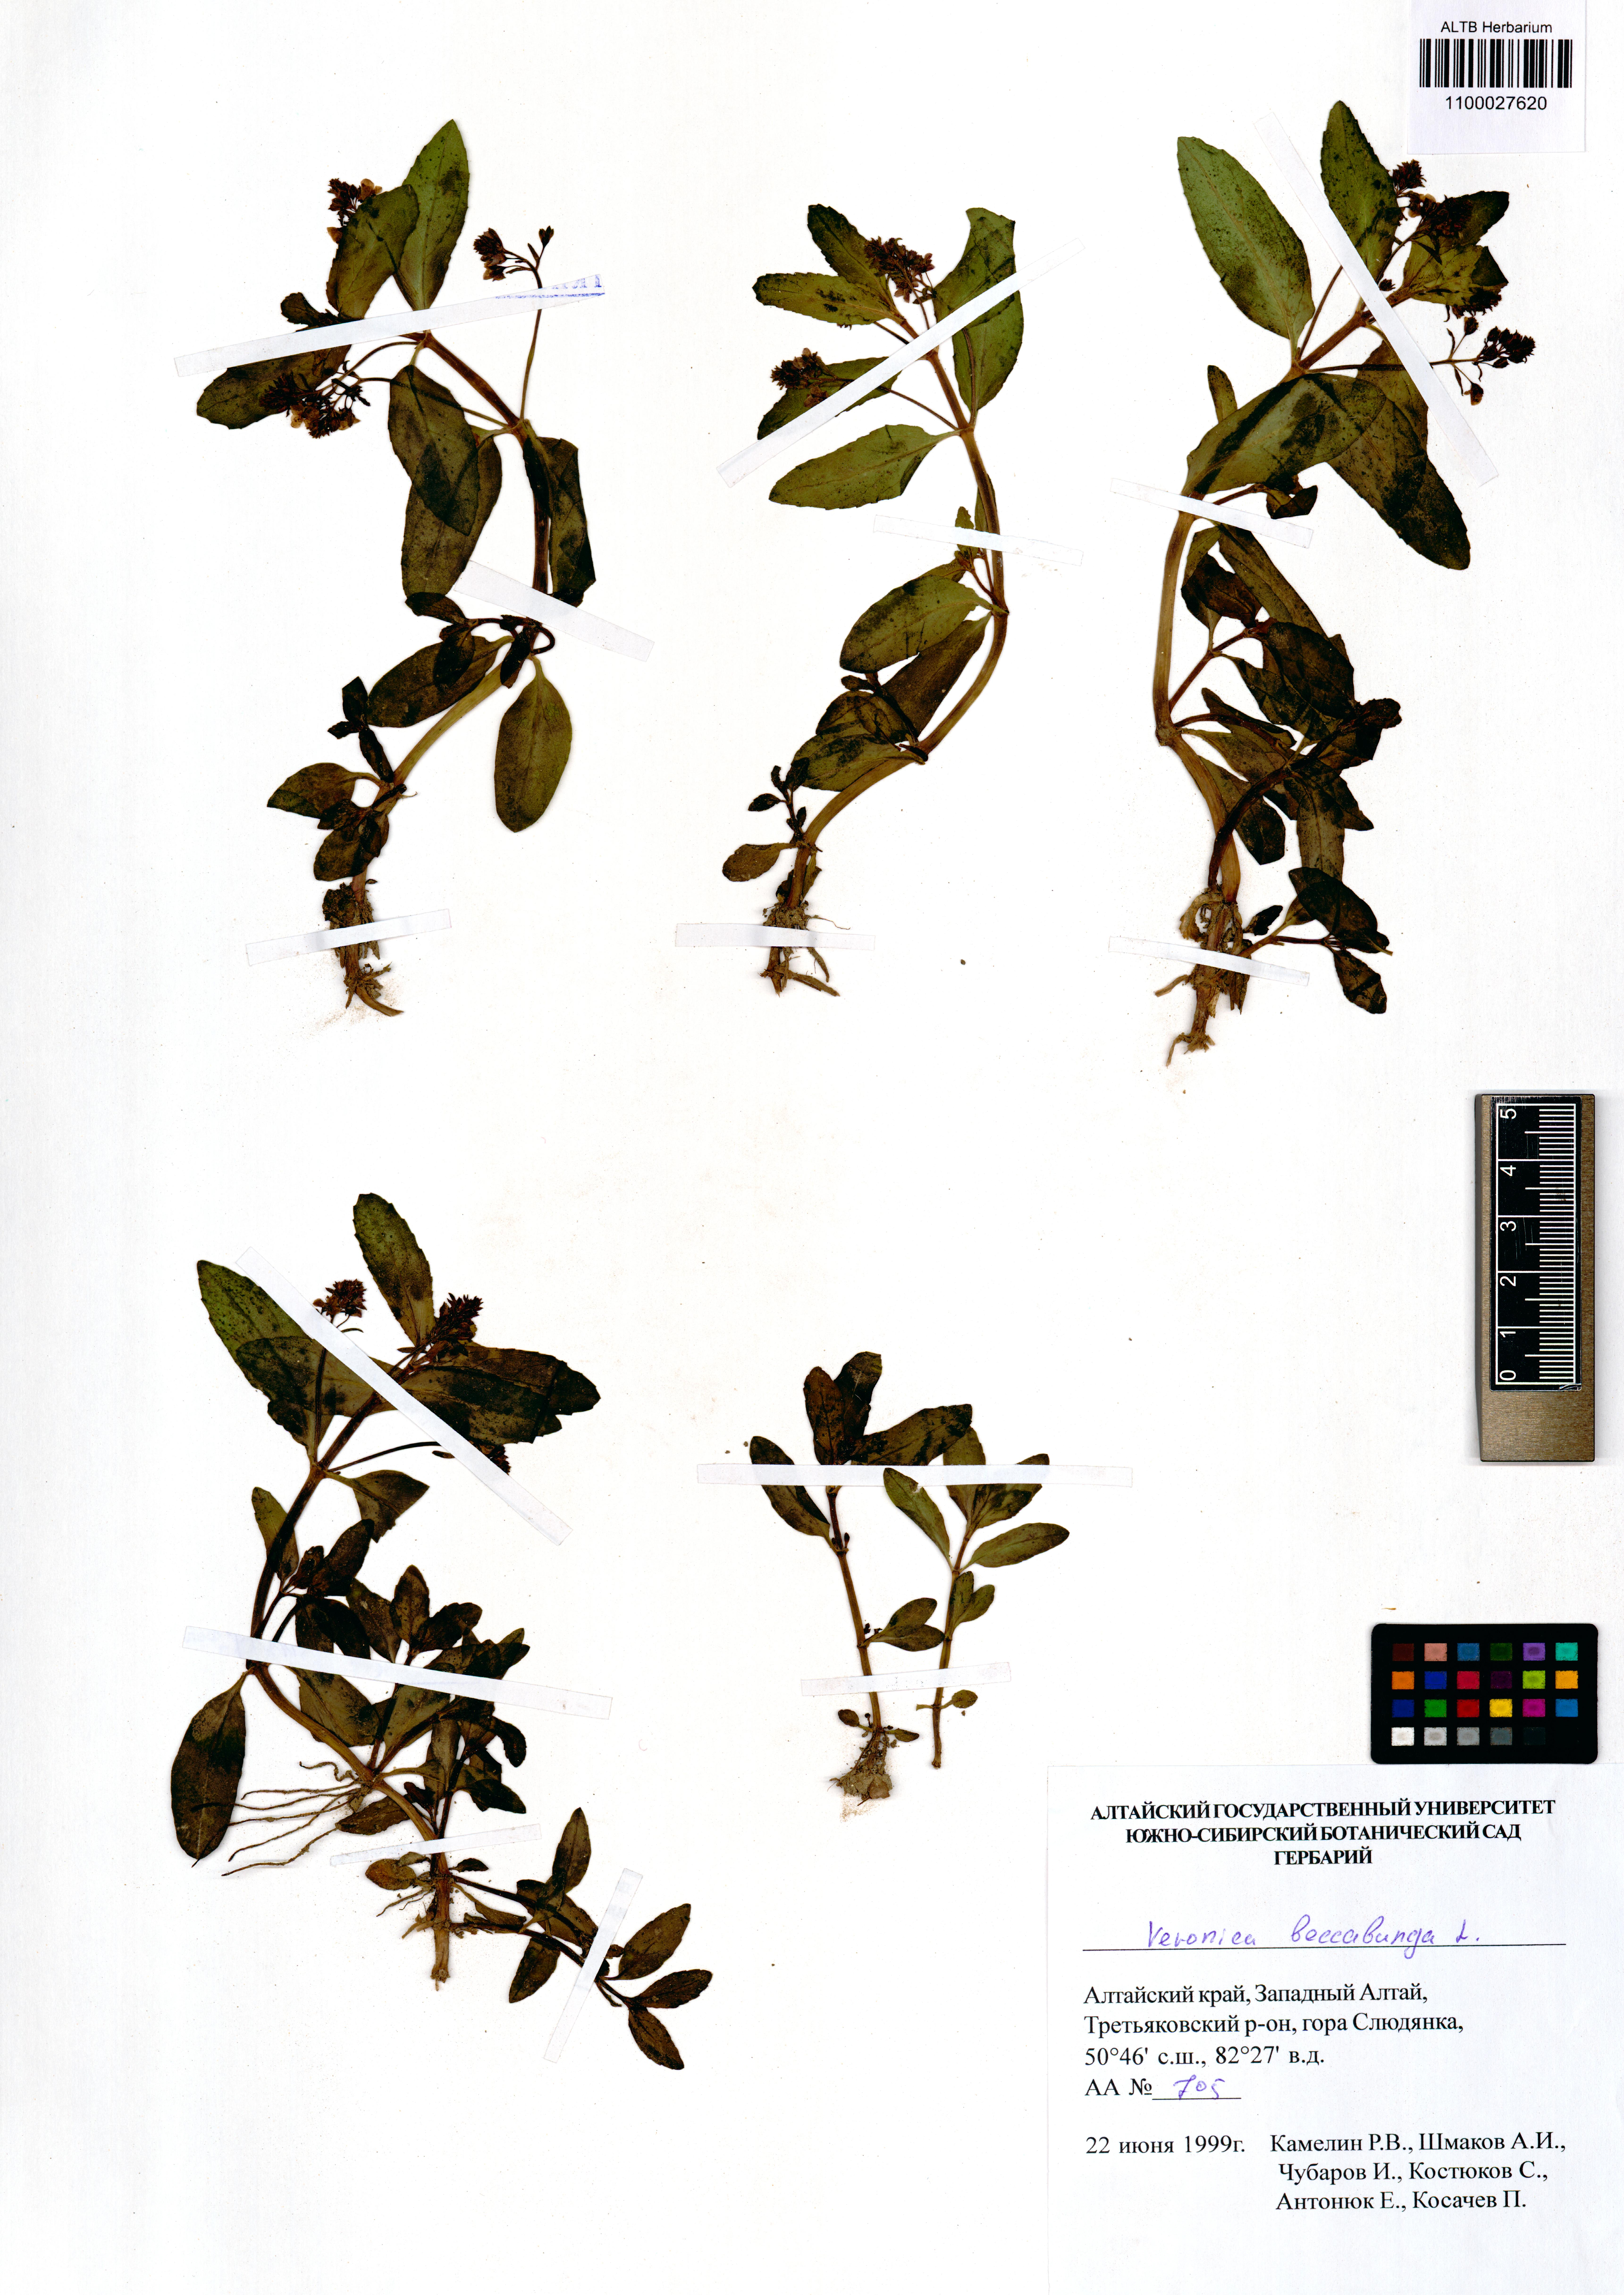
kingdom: Plantae
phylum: Tracheophyta
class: Magnoliopsida
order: Lamiales
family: Plantaginaceae
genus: Veronica
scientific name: Veronica beccabunga
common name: Brooklime
